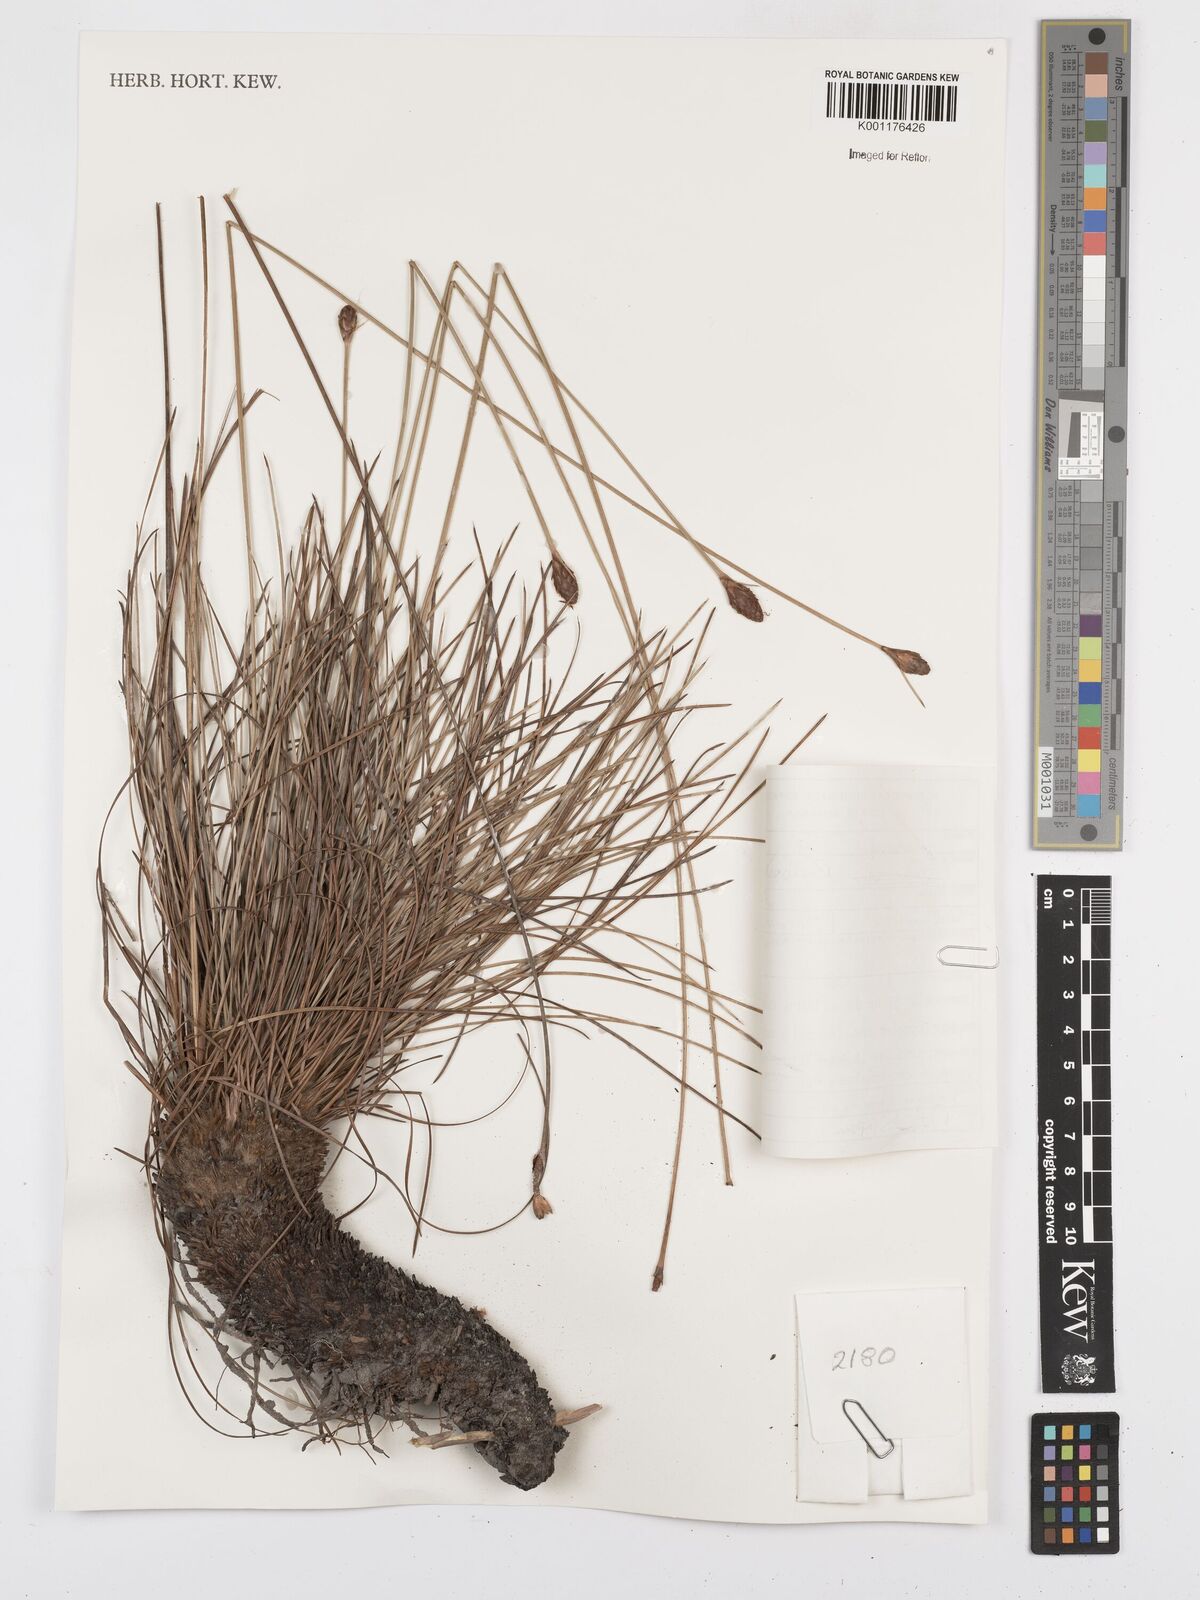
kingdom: Plantae
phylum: Tracheophyta
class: Liliopsida
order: Poales
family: Cyperaceae
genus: Bulbostylis
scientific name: Bulbostylis lanata
